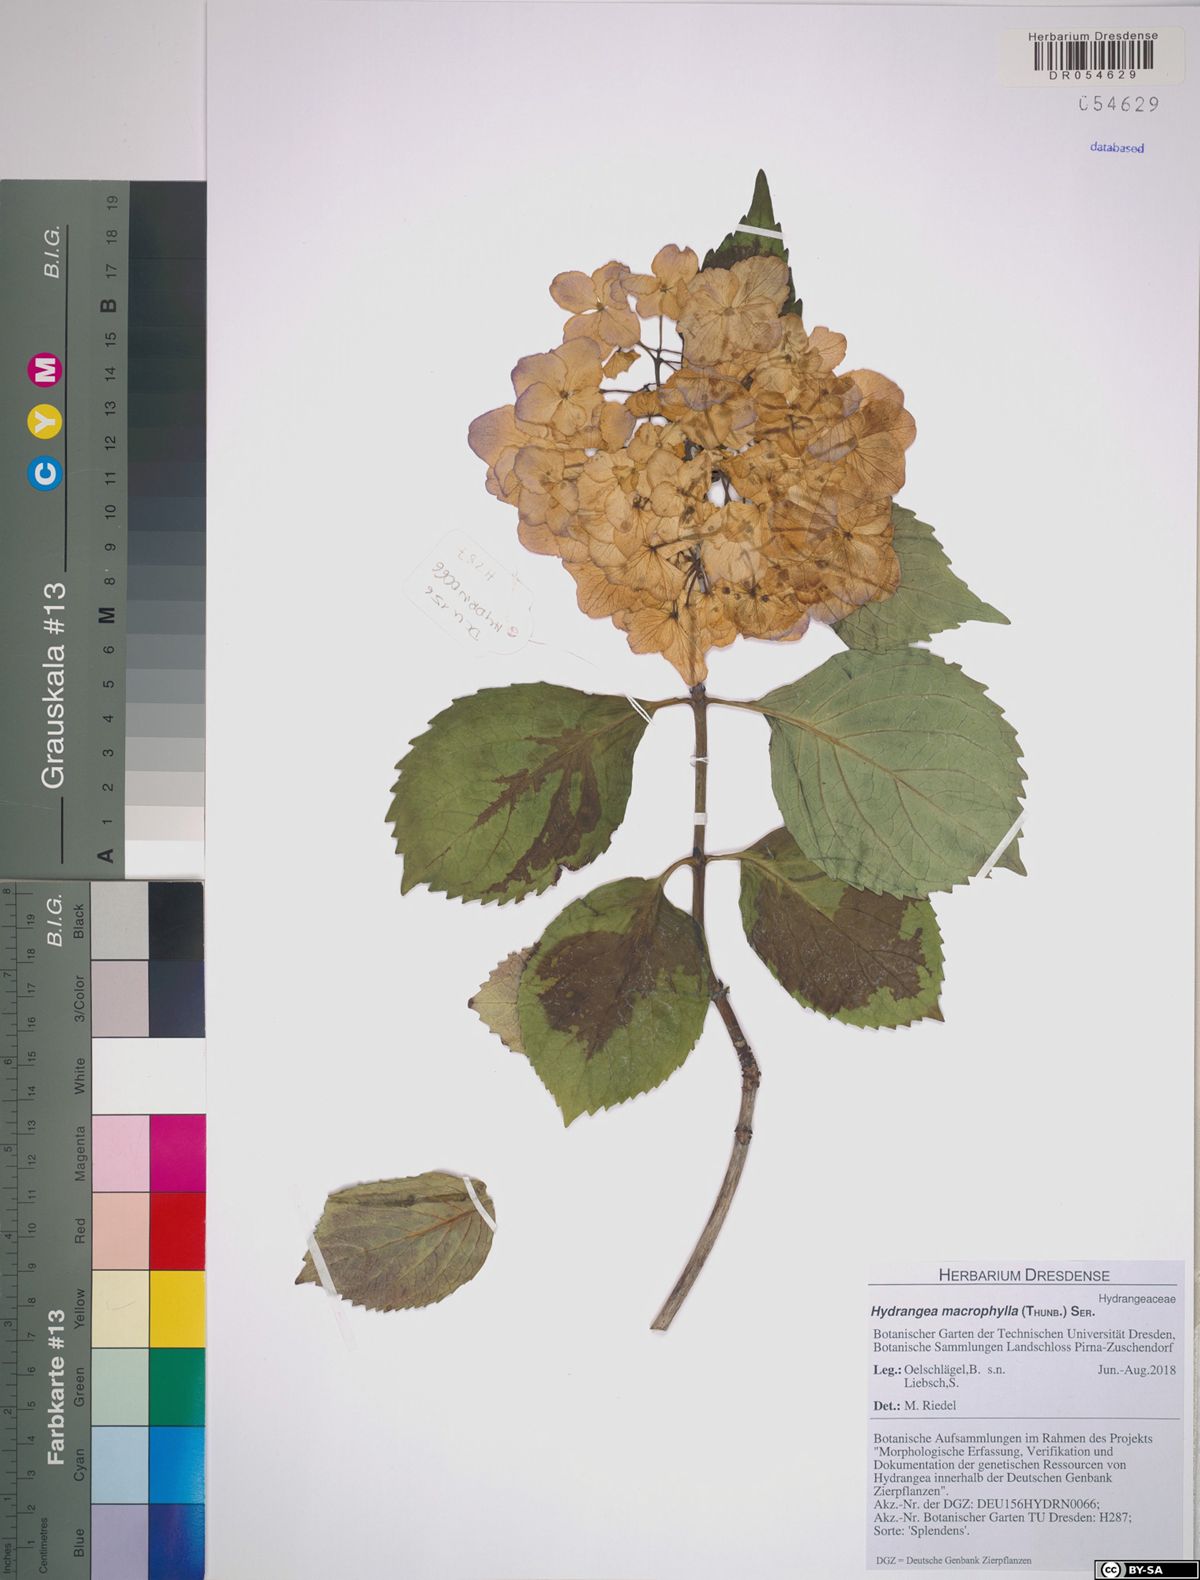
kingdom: Plantae
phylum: Tracheophyta
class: Magnoliopsida
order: Cornales
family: Hydrangeaceae
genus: Hydrangea
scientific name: Hydrangea macrophylla
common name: Hydrangea
